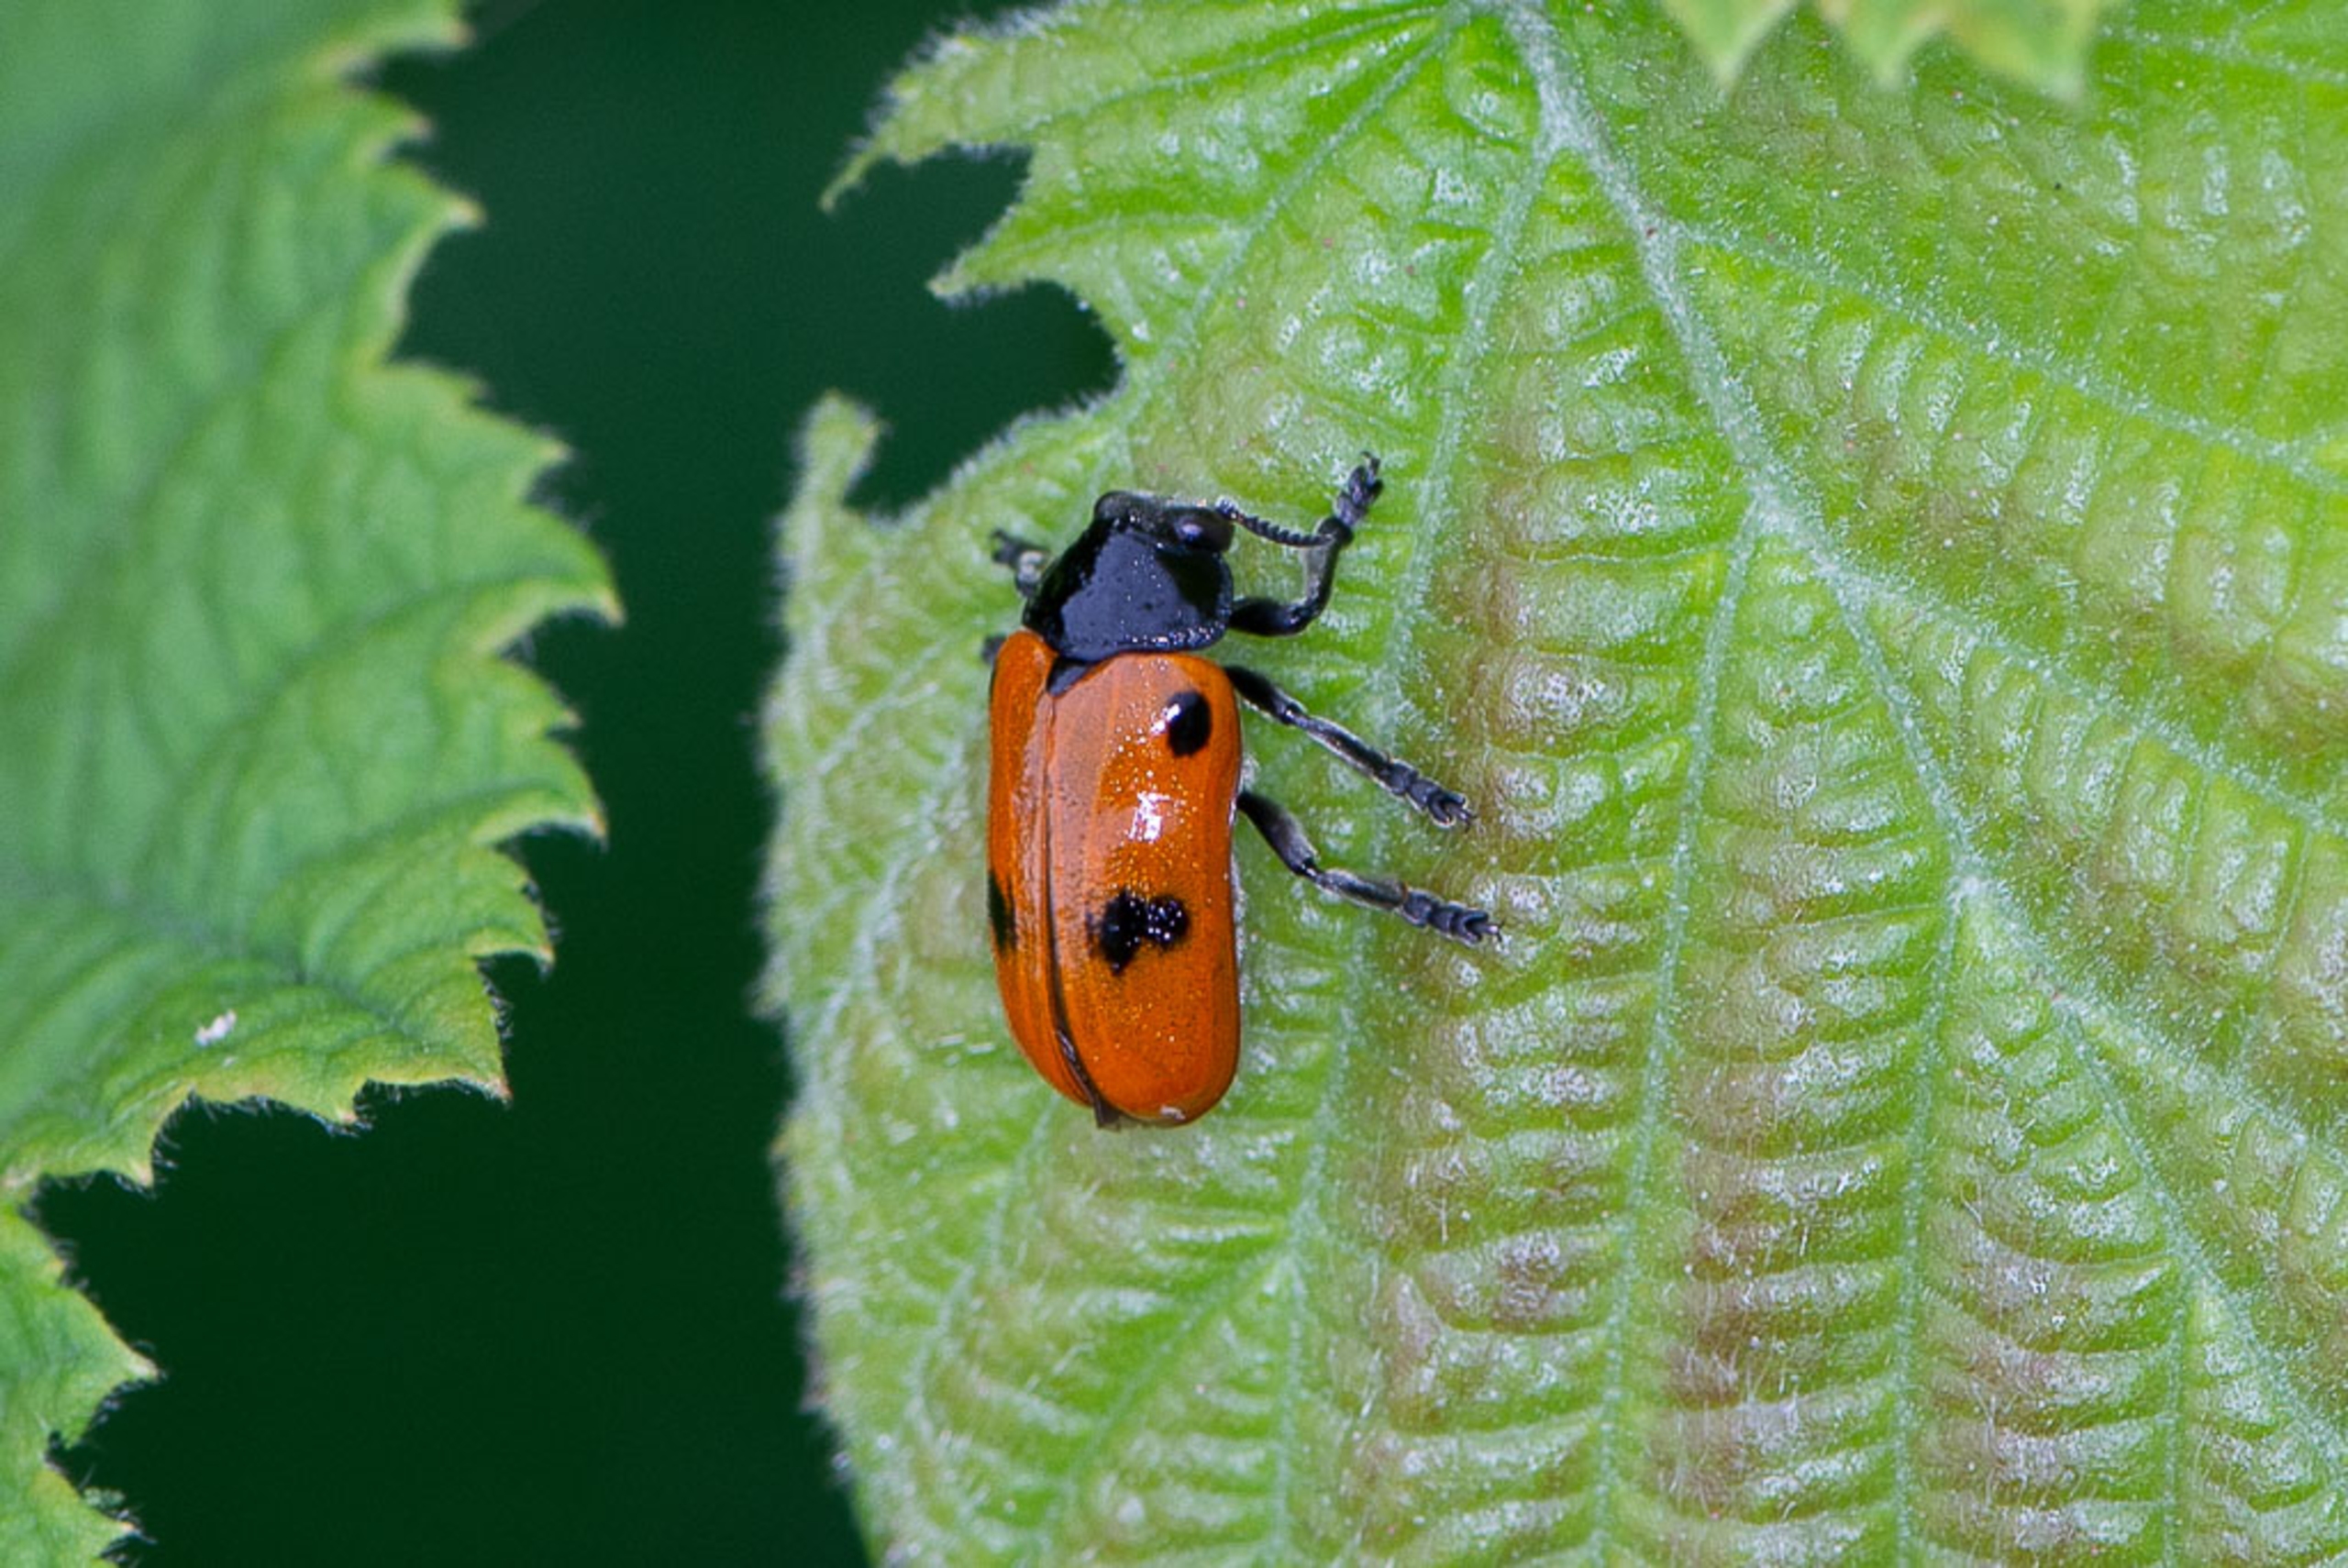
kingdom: Animalia
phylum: Arthropoda
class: Insecta
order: Coleoptera
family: Chrysomelidae
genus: Clytra
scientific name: Clytra quadripunctata
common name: Myrebladbille
